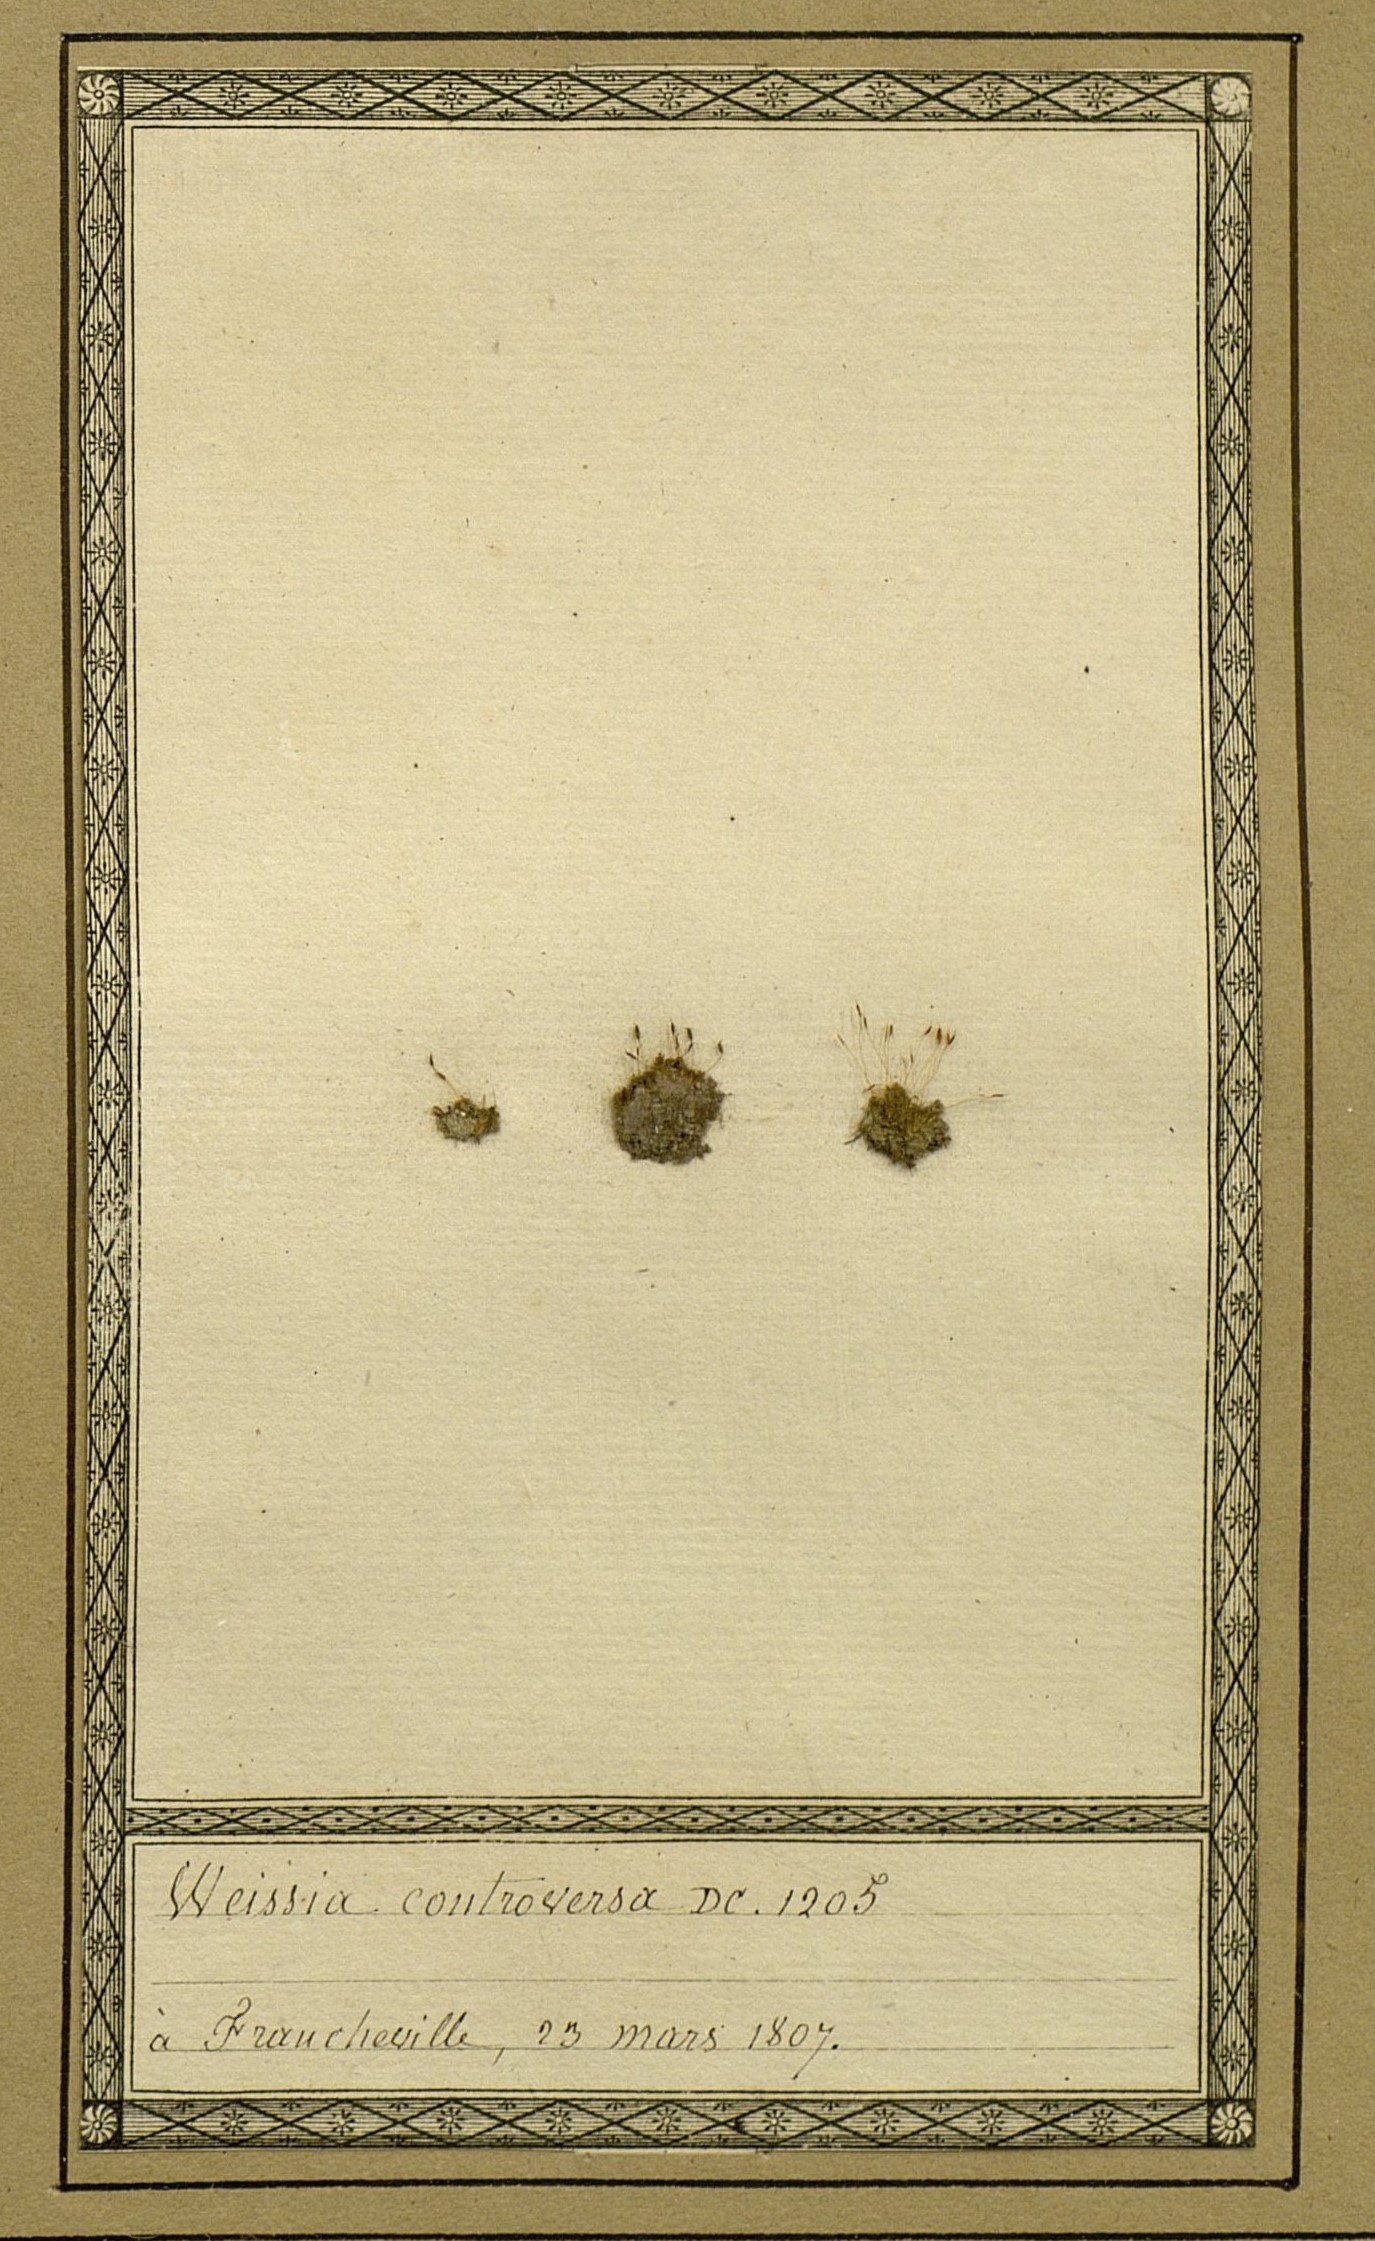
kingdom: Plantae
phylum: Bryophyta
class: Bryopsida
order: Pottiales
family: Pottiaceae
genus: Weissia
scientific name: Weissia controversa
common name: Green-tufted stubble moss
